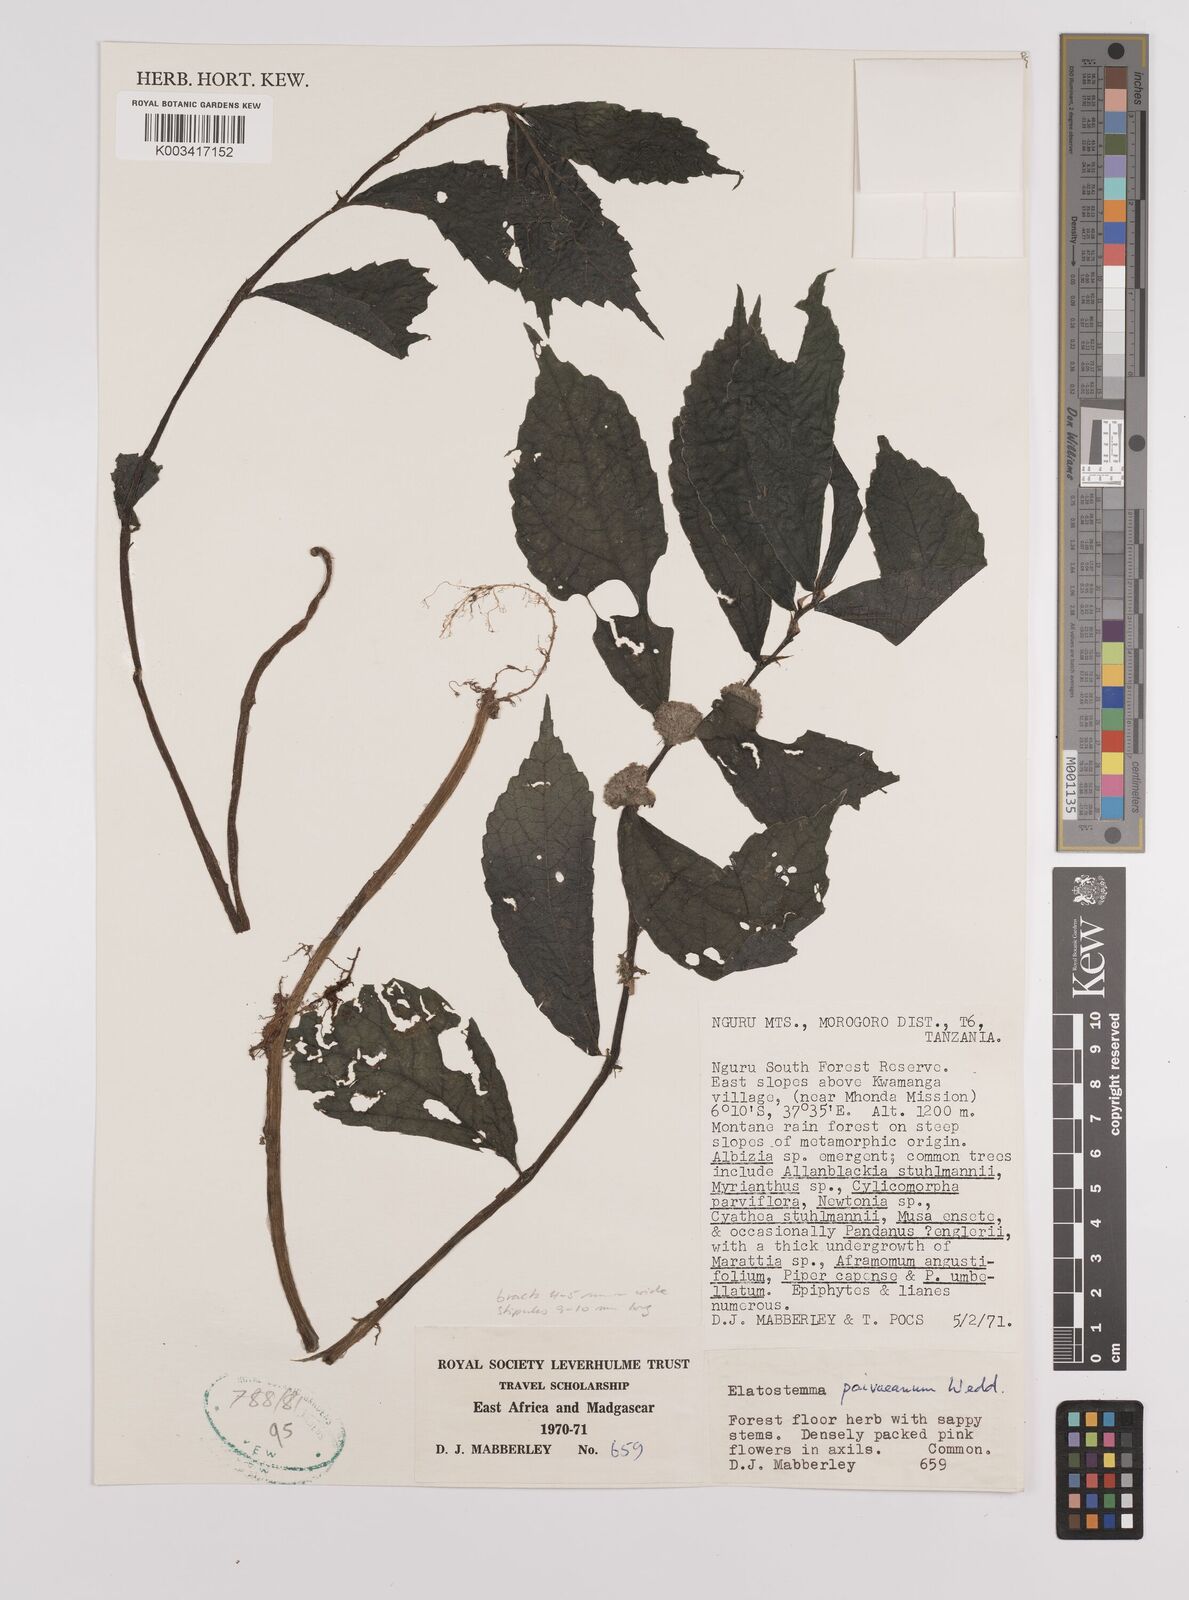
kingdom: Plantae
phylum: Tracheophyta
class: Magnoliopsida
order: Rosales
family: Urticaceae
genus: Elatostema
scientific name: Elatostema paivaeanum
